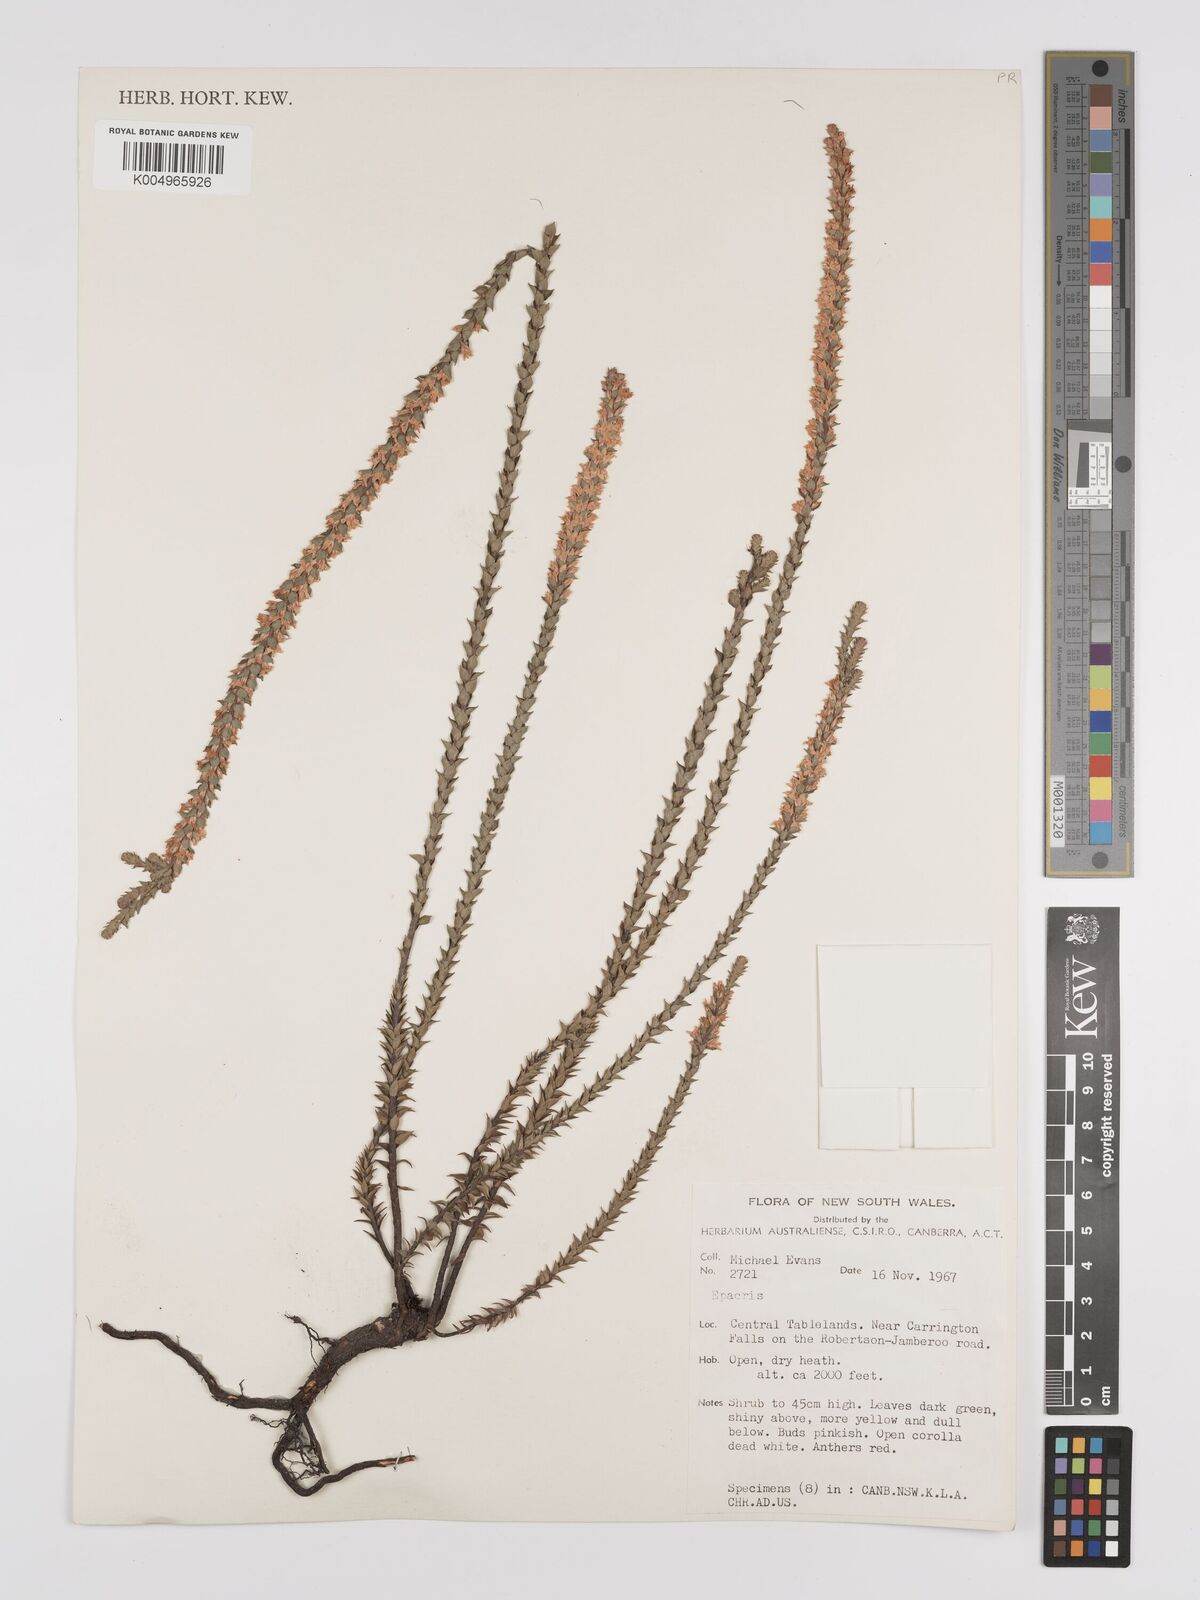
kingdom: Plantae
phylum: Tracheophyta
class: Magnoliopsida
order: Ericales
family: Ericaceae
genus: Epacris
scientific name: Epacris
